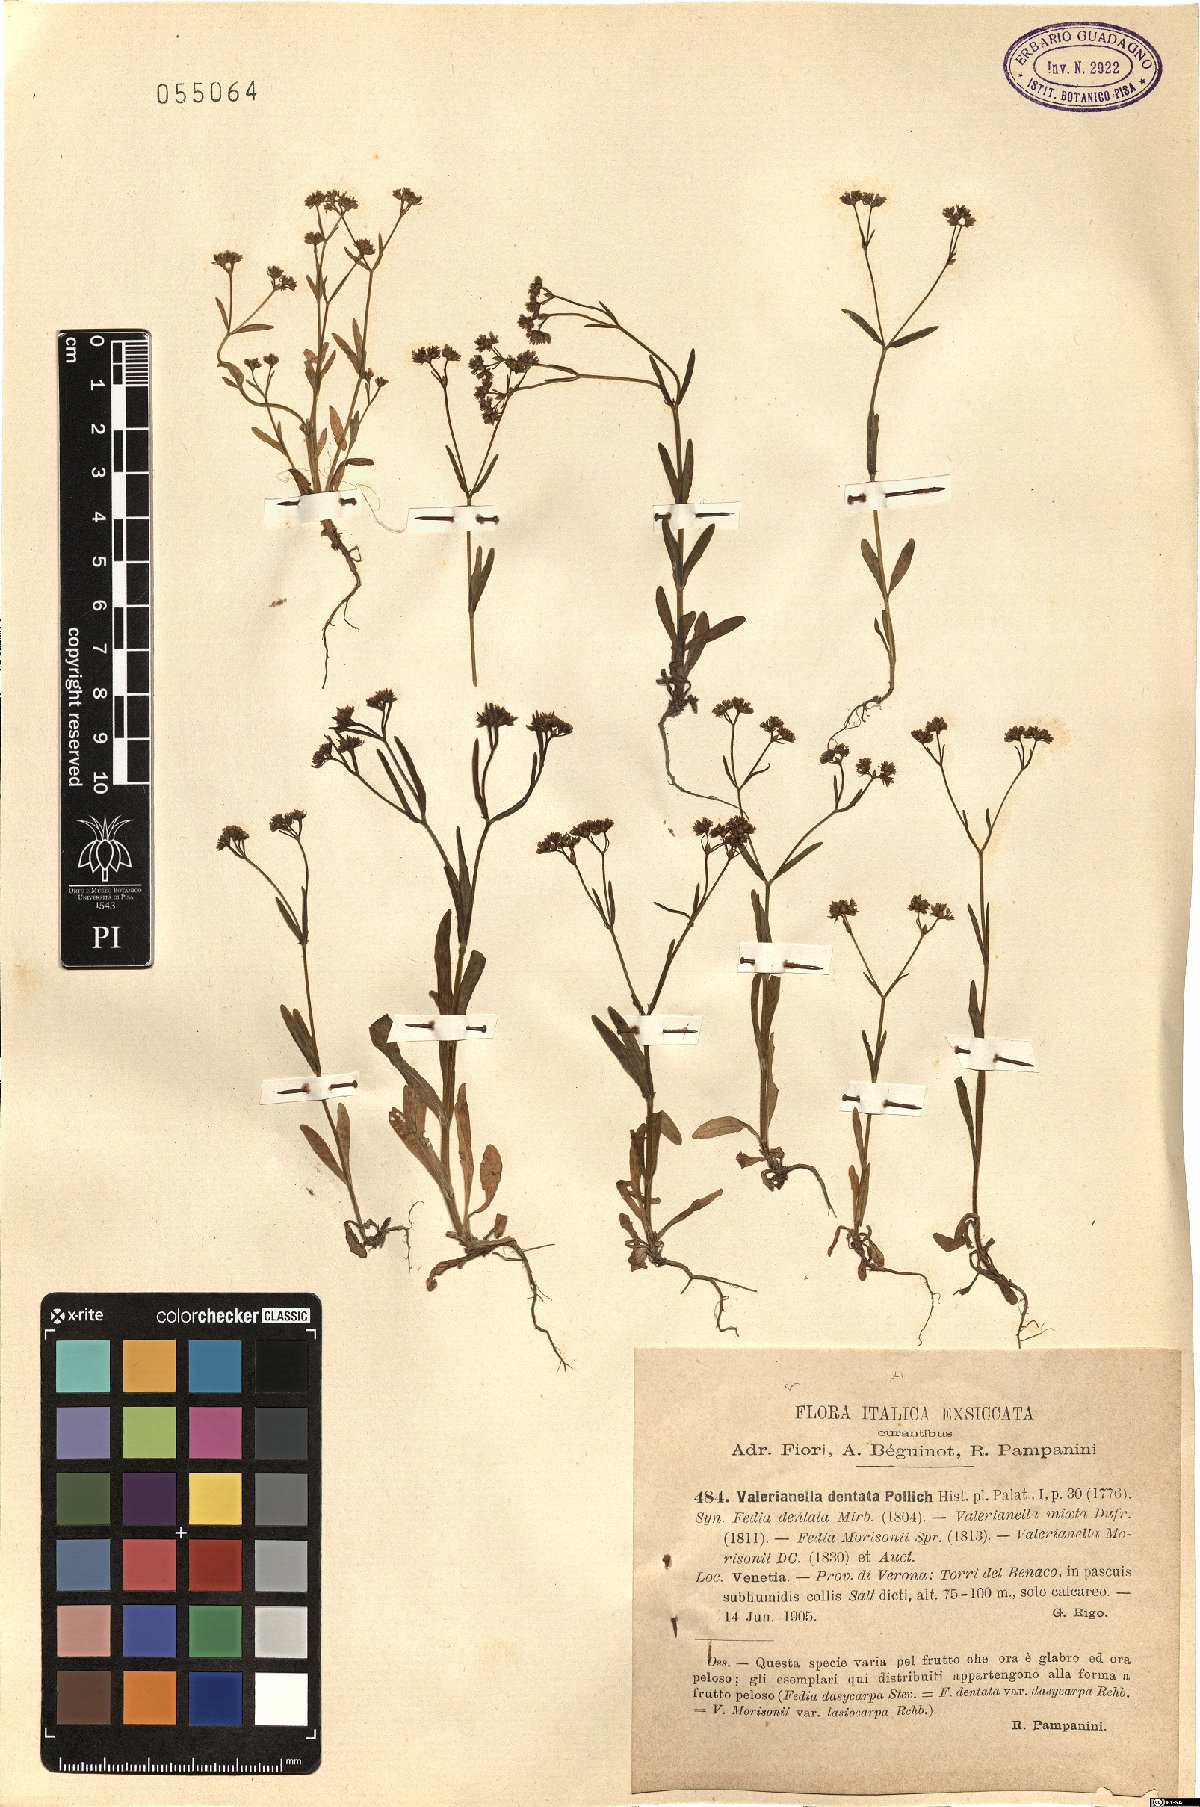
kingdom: Plantae
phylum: Tracheophyta
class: Magnoliopsida
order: Dipsacales
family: Caprifoliaceae
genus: Valerianella
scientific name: Valerianella dentata
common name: Narrow-fruited cornsalad
